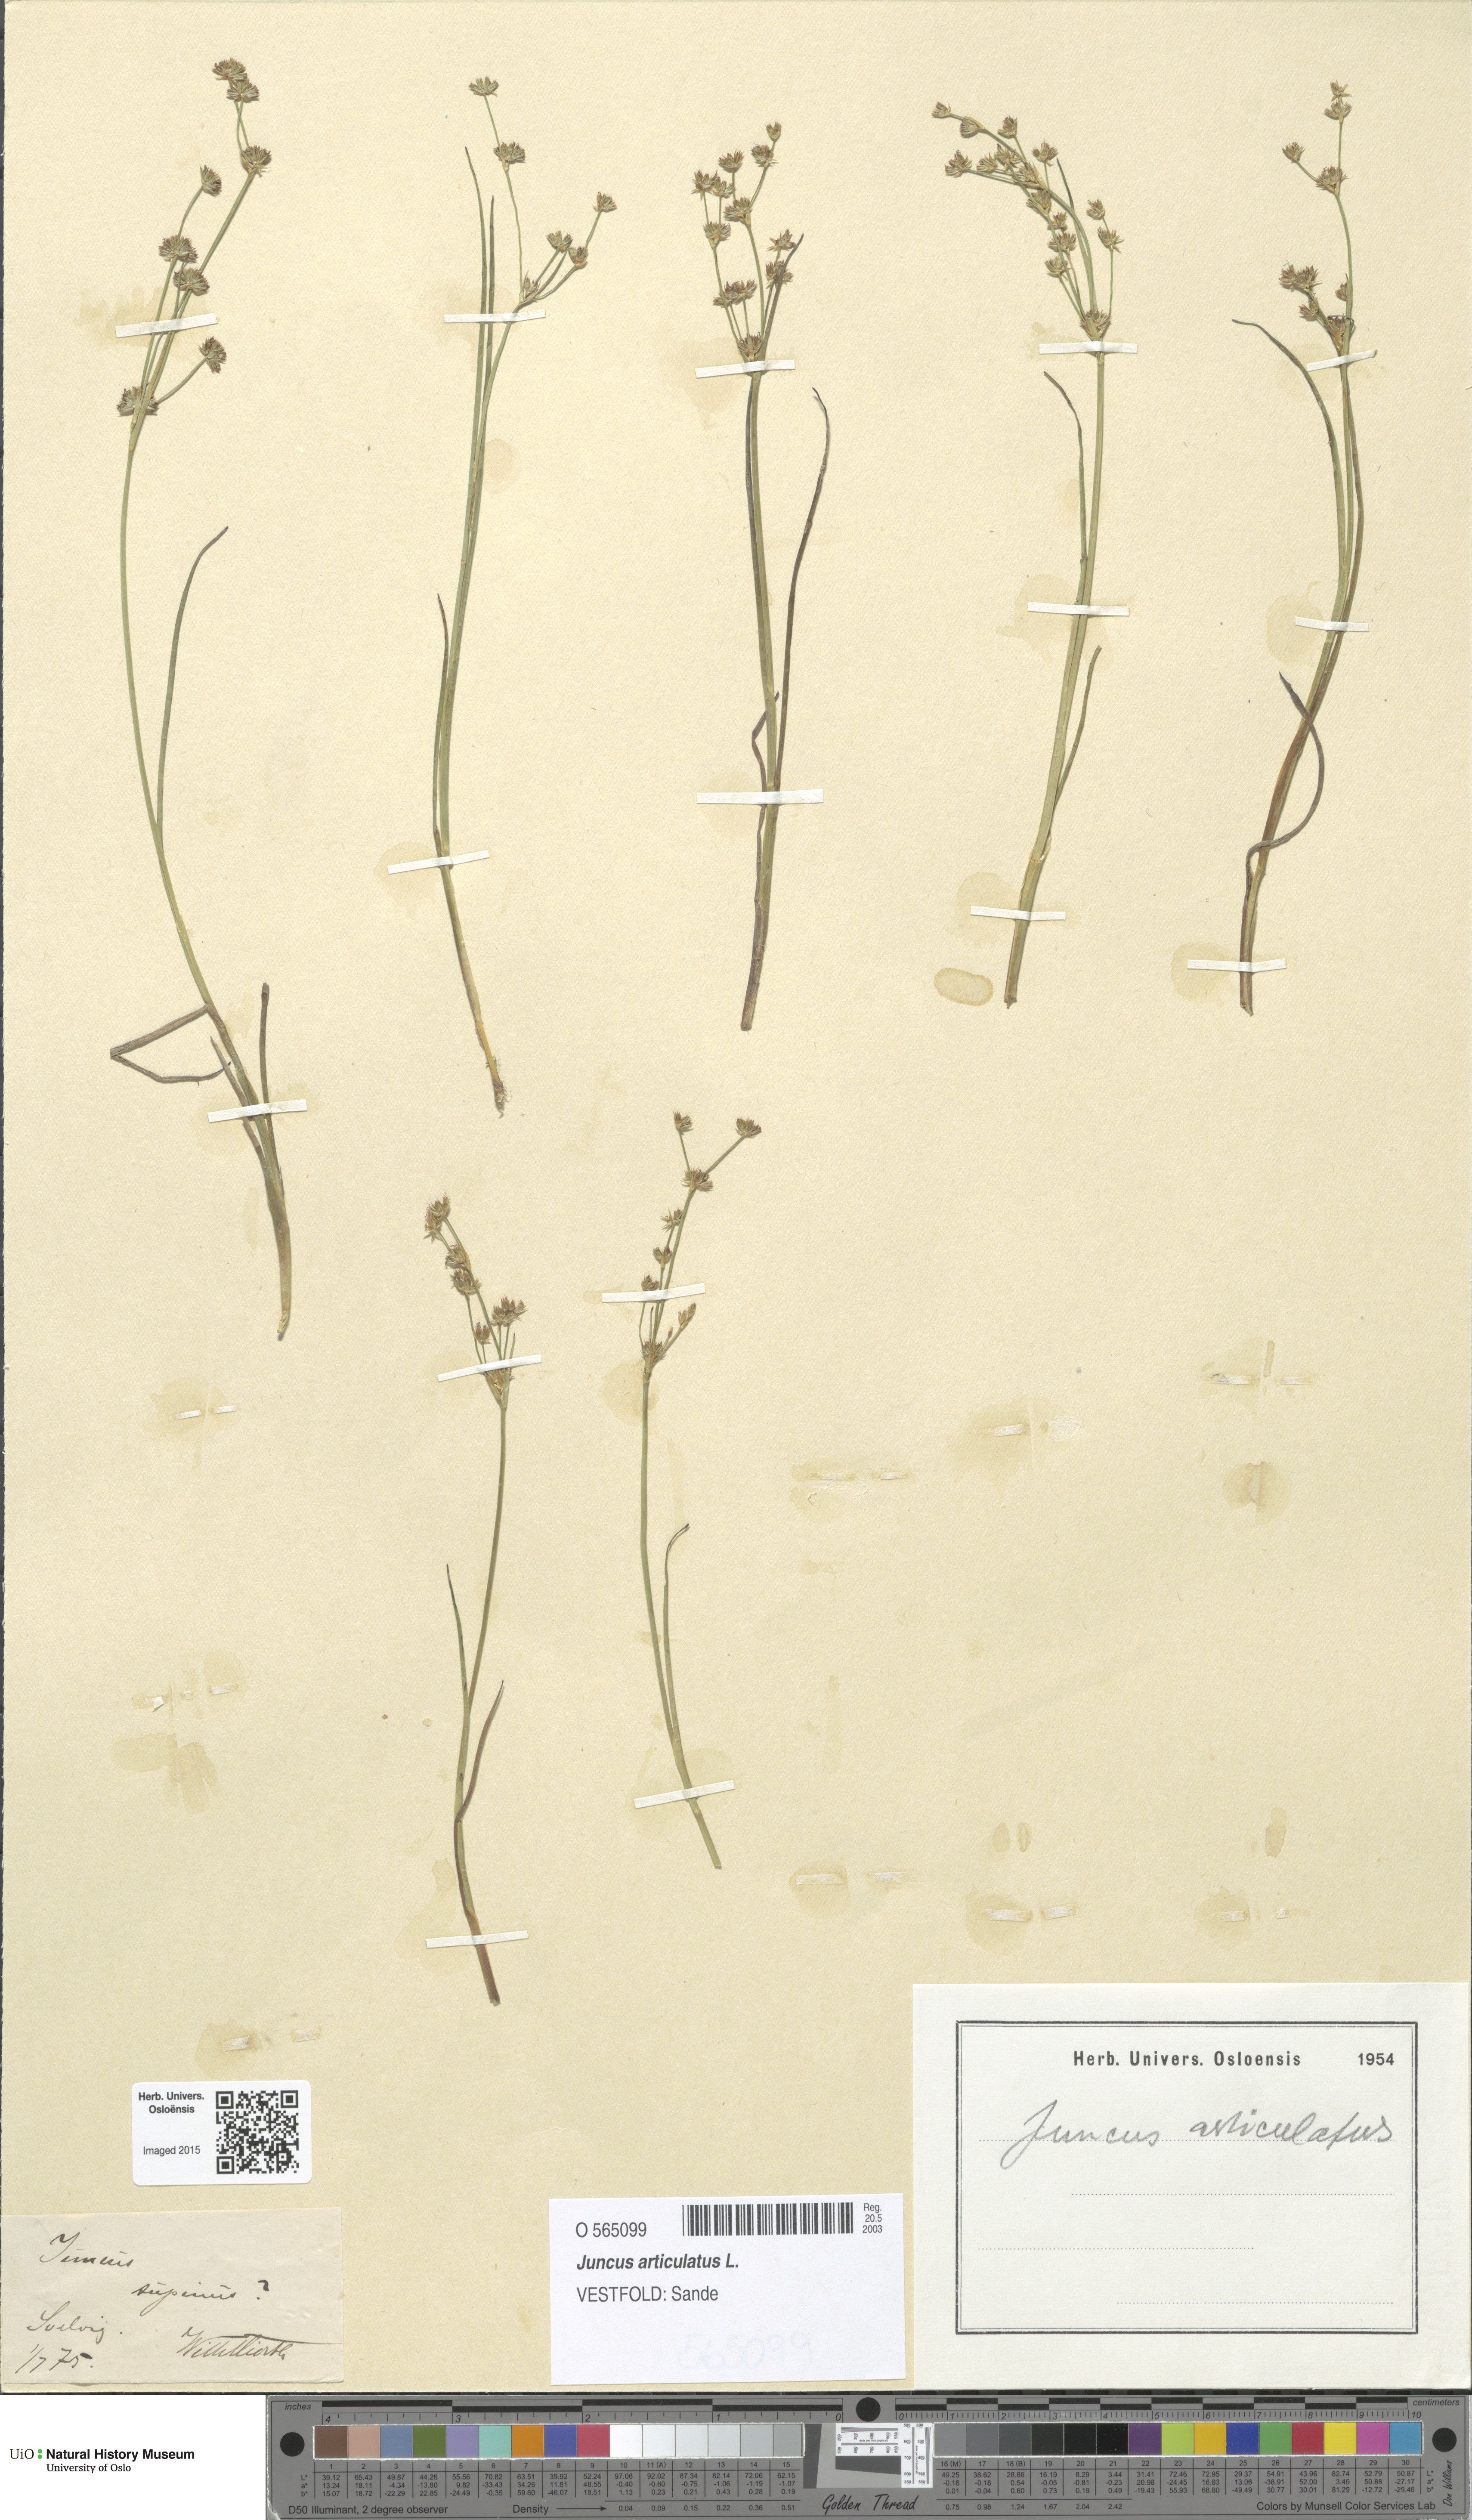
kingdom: Plantae
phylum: Tracheophyta
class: Liliopsida
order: Poales
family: Juncaceae
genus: Juncus
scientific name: Juncus articulatus
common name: Jointed rush
